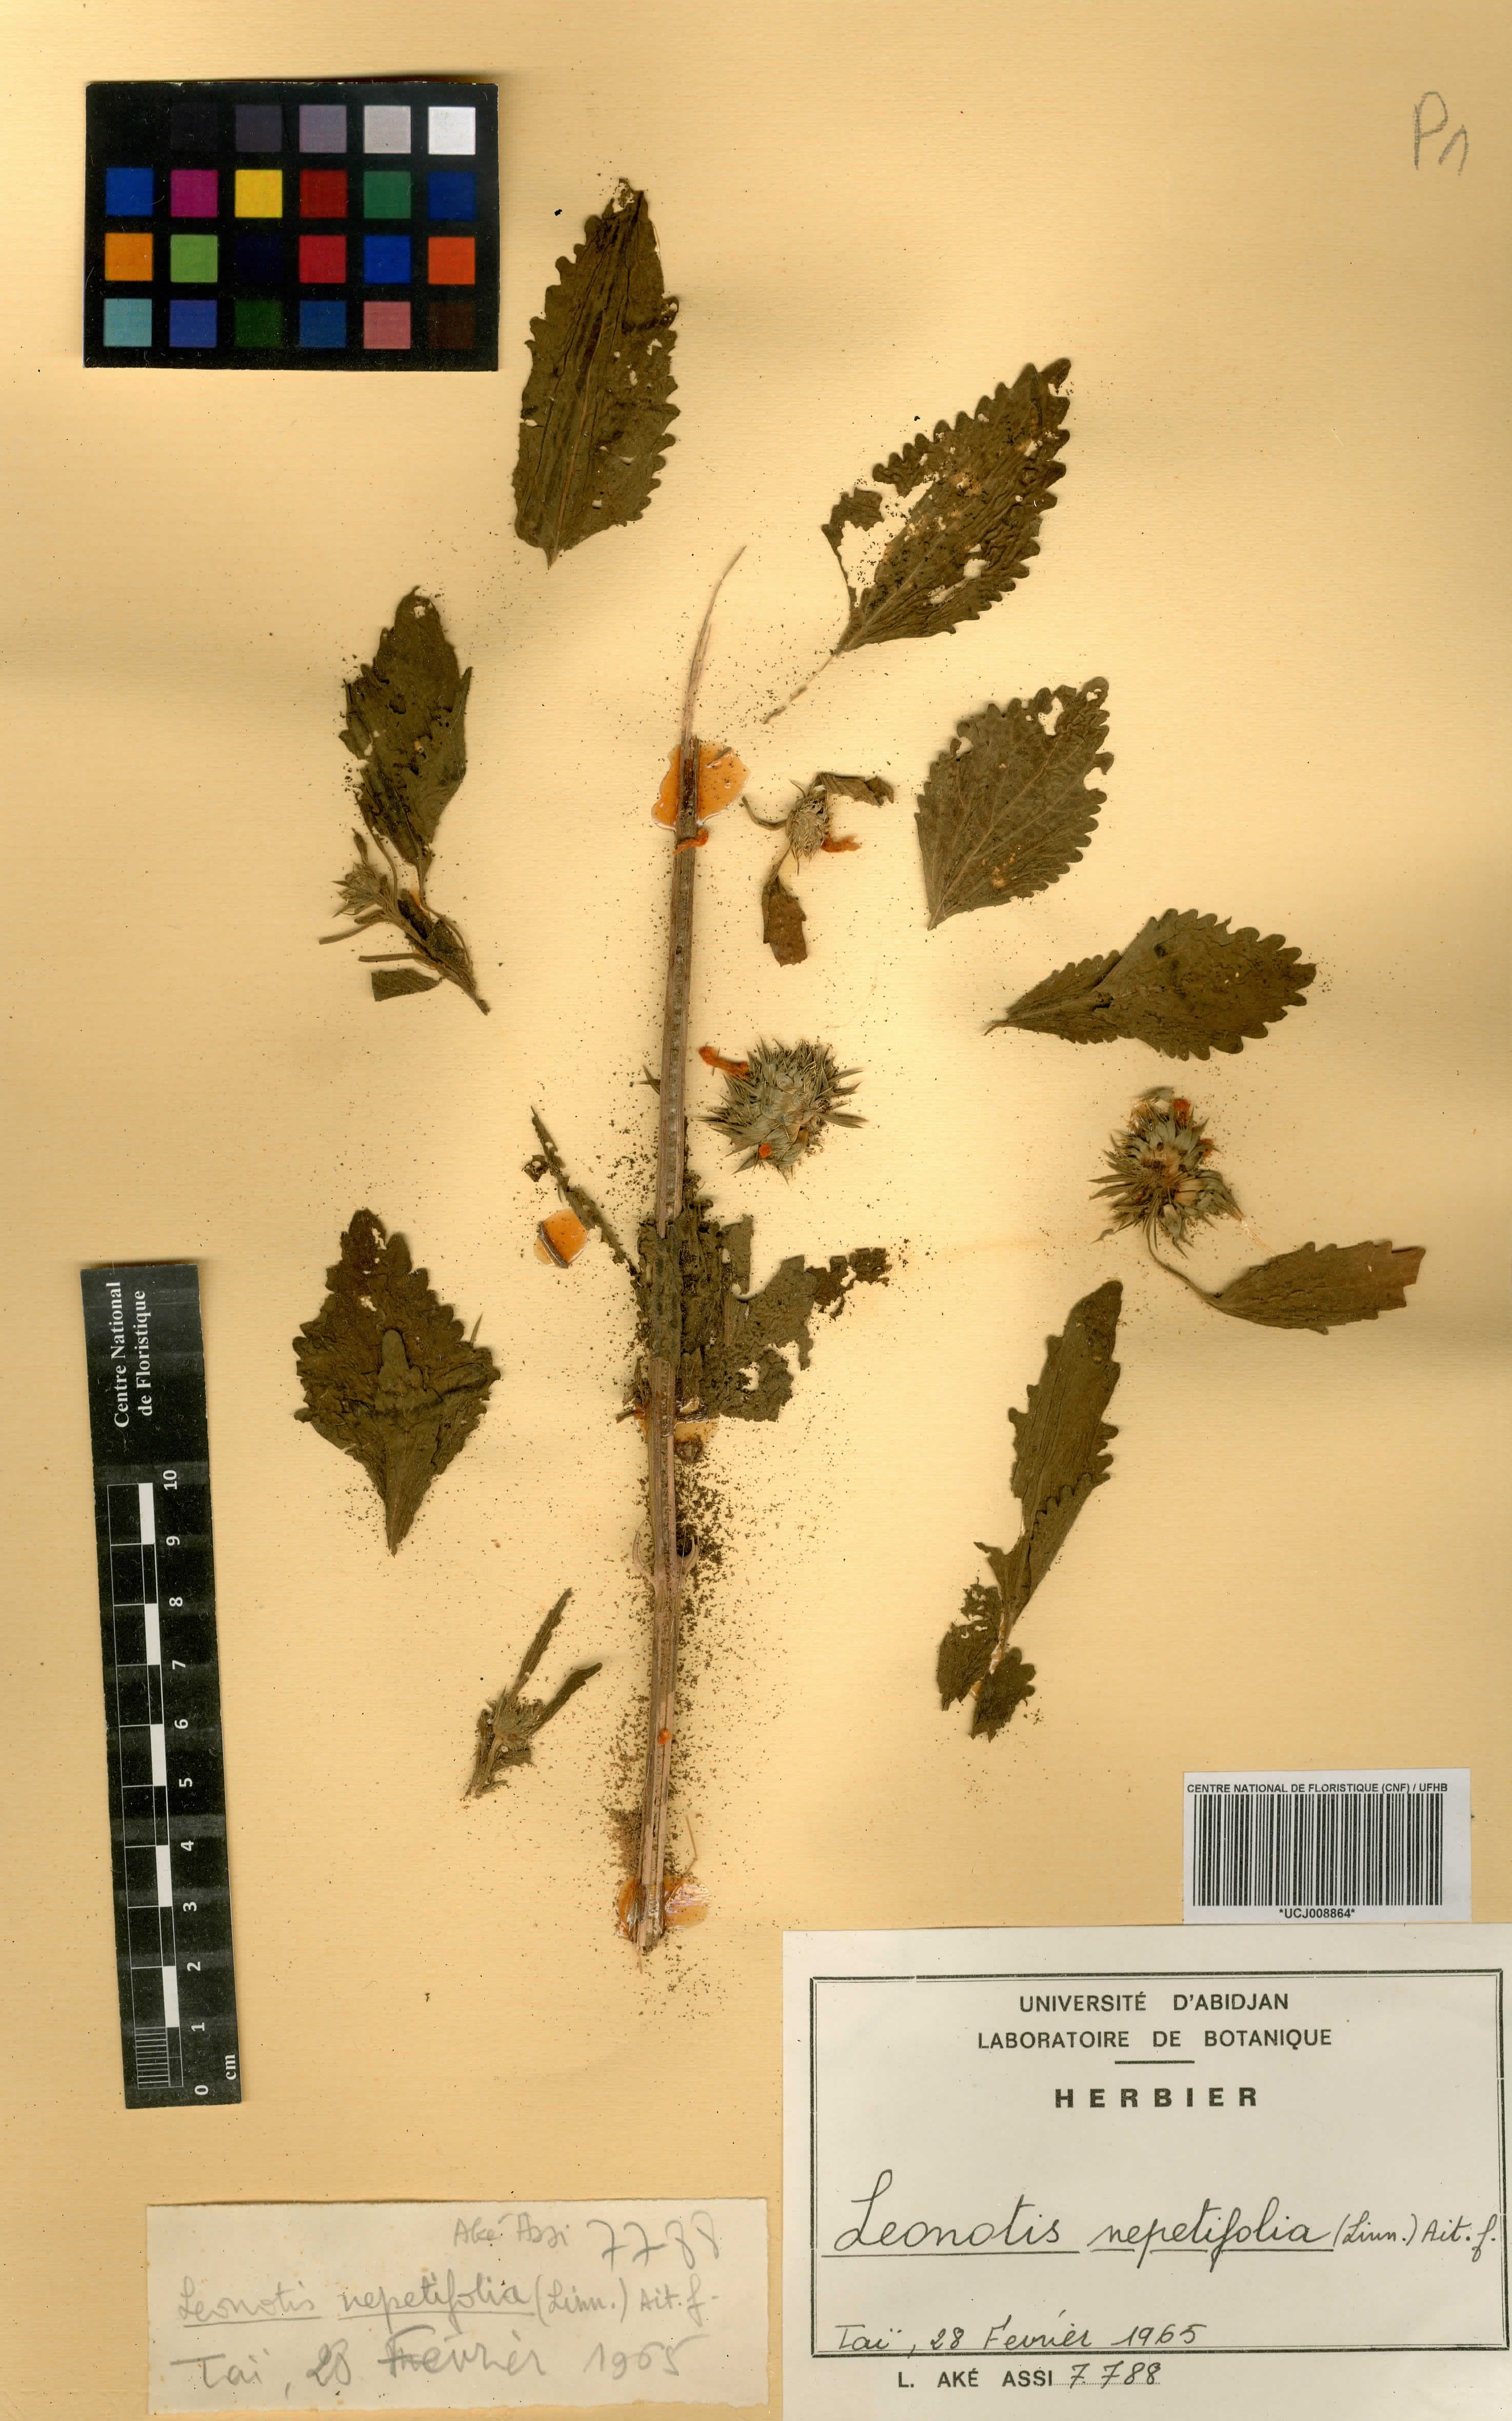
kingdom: Plantae
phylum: Tracheophyta
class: Magnoliopsida
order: Lamiales
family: Lamiaceae
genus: Leonotis
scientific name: Leonotis nepetifolia
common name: Christmas candlestick
